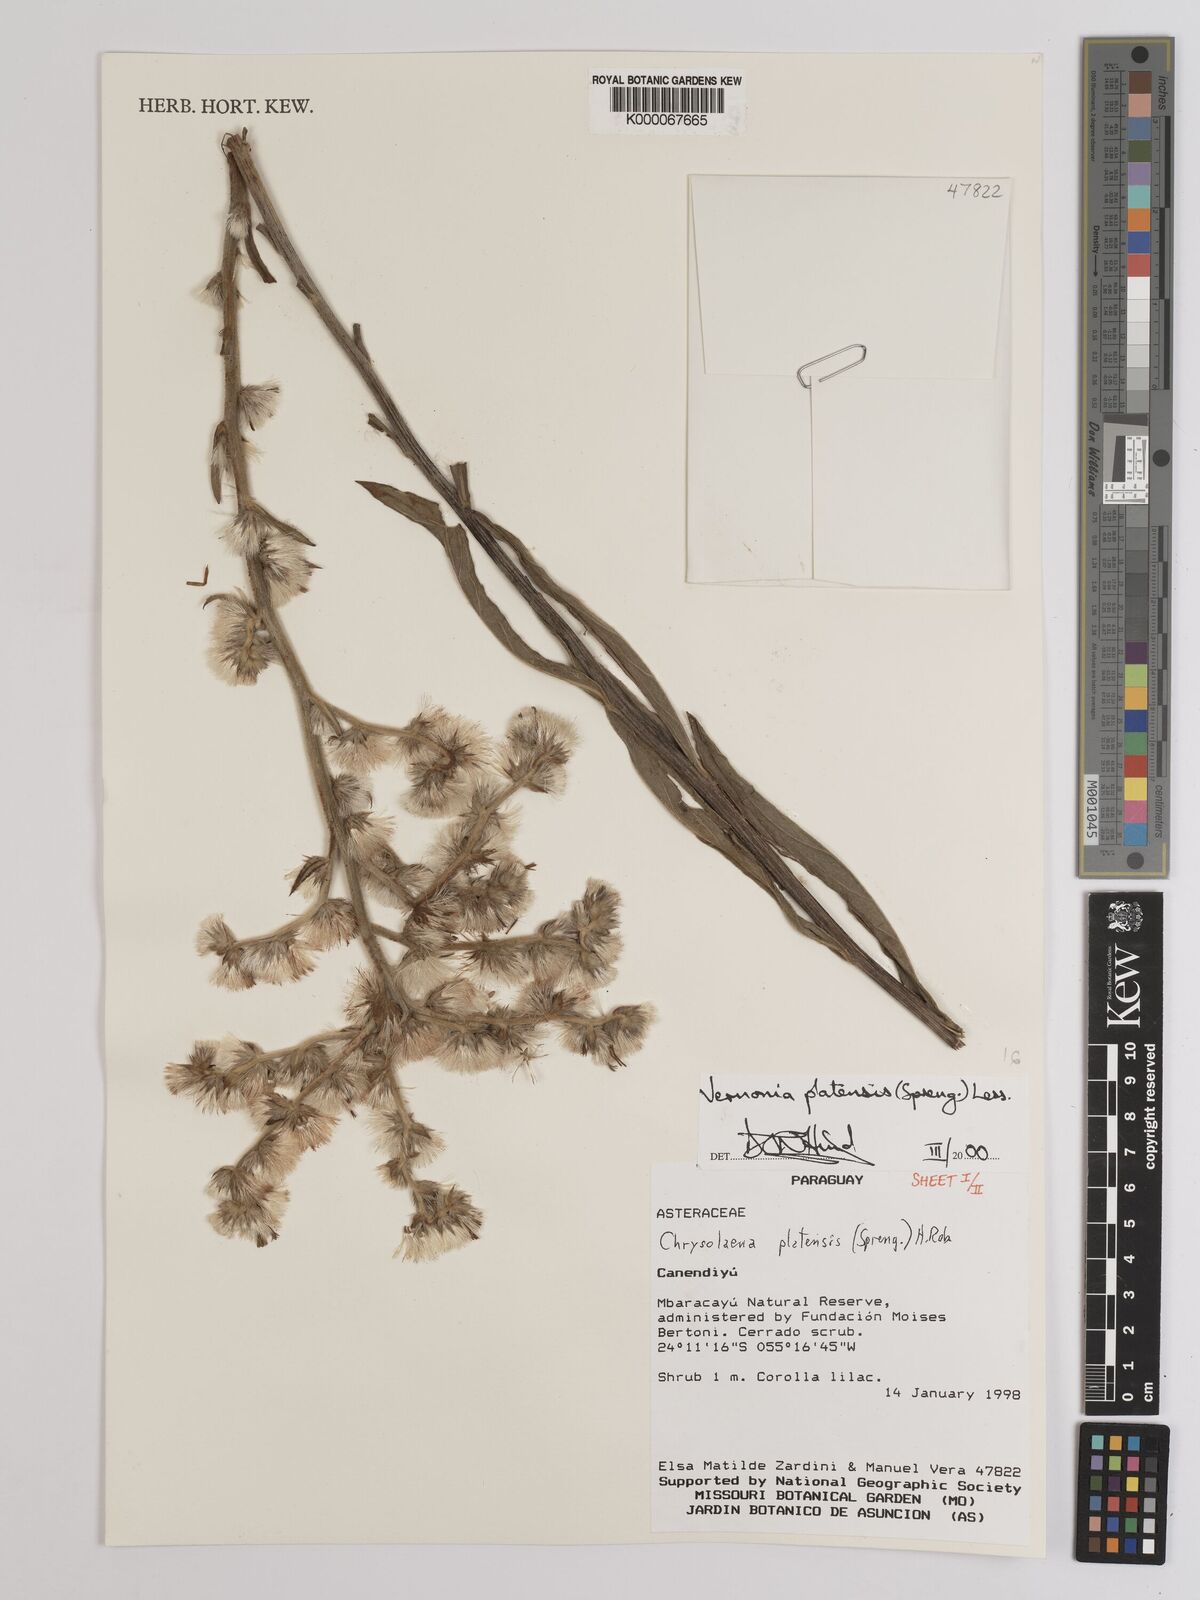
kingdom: Plantae
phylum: Tracheophyta
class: Magnoliopsida
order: Asterales
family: Asteraceae
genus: Chrysolaena
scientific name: Chrysolaena platensis
